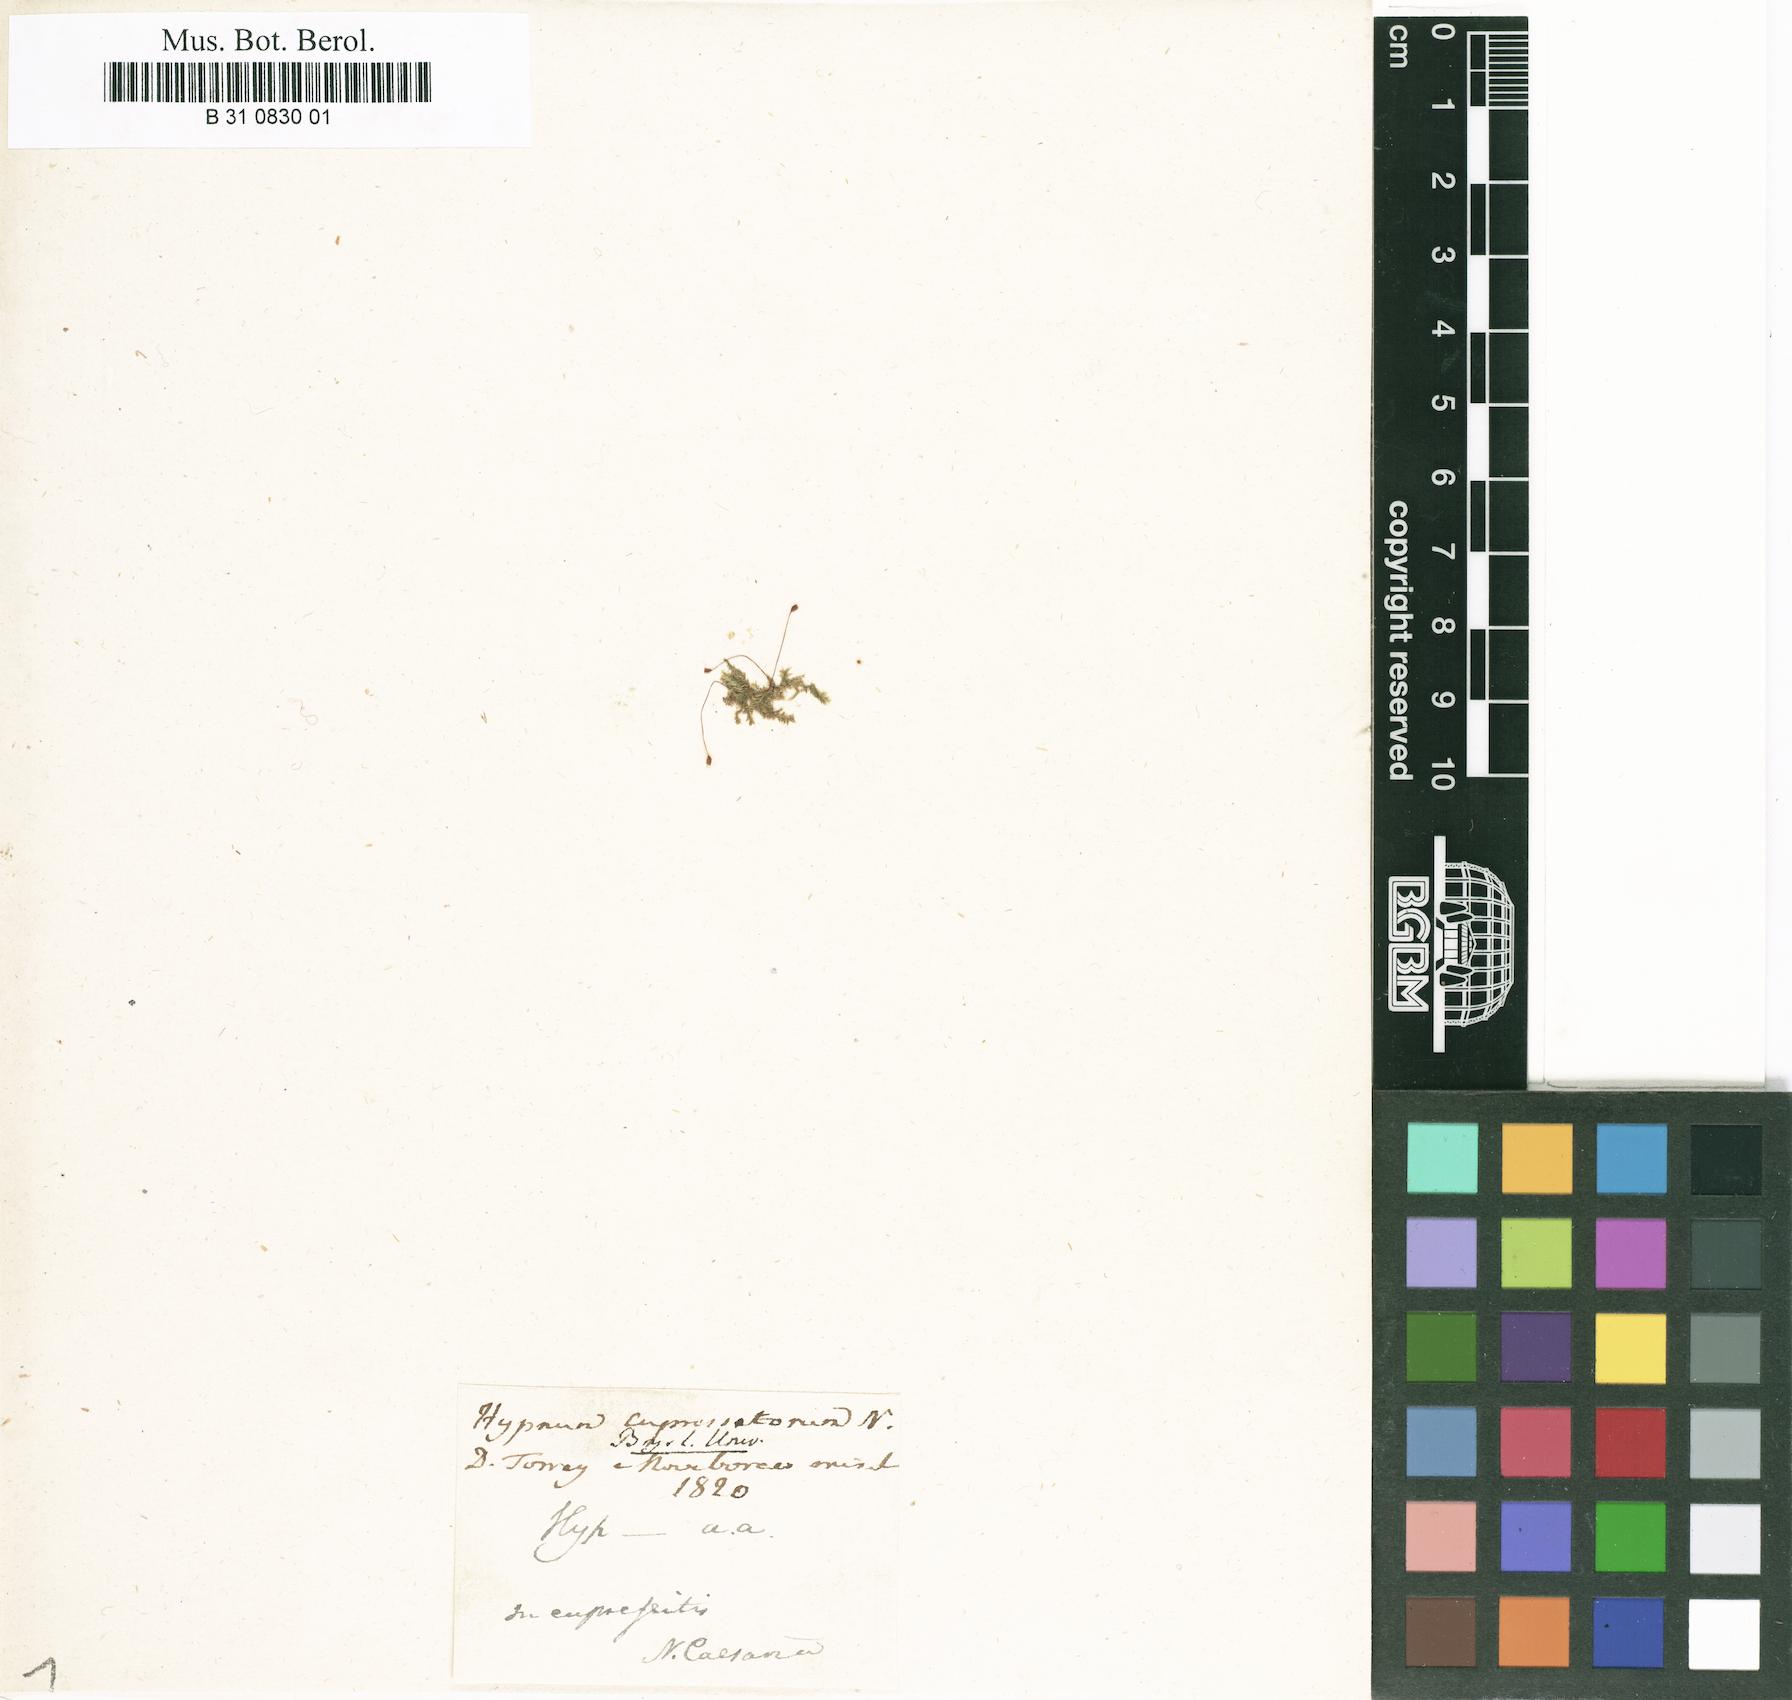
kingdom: Plantae
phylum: Bryophyta
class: Bryopsida
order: Hypnales
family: Pylaisiadelphaceae
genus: Brotherella
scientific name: Brotherella recurvans
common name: Recurved brotherella
